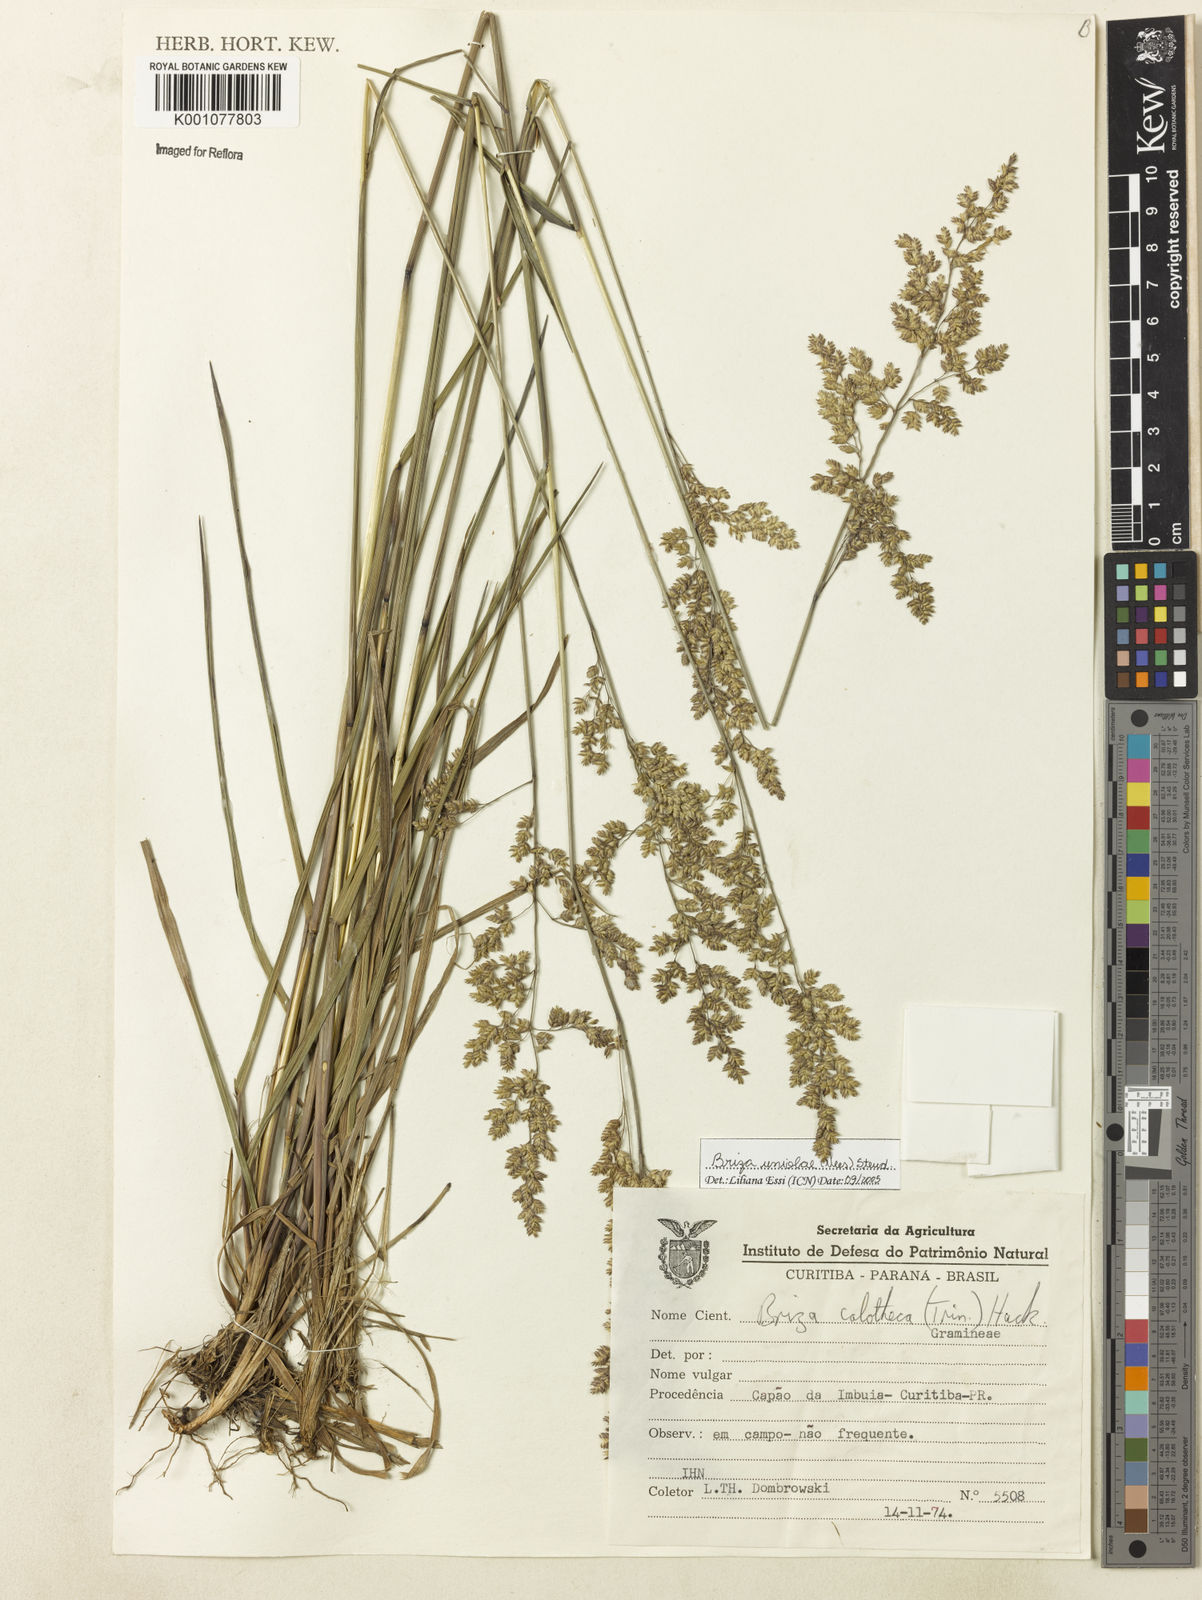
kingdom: Plantae
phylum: Tracheophyta
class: Liliopsida
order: Poales
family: Poaceae
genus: Poidium
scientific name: Poidium uniolae
